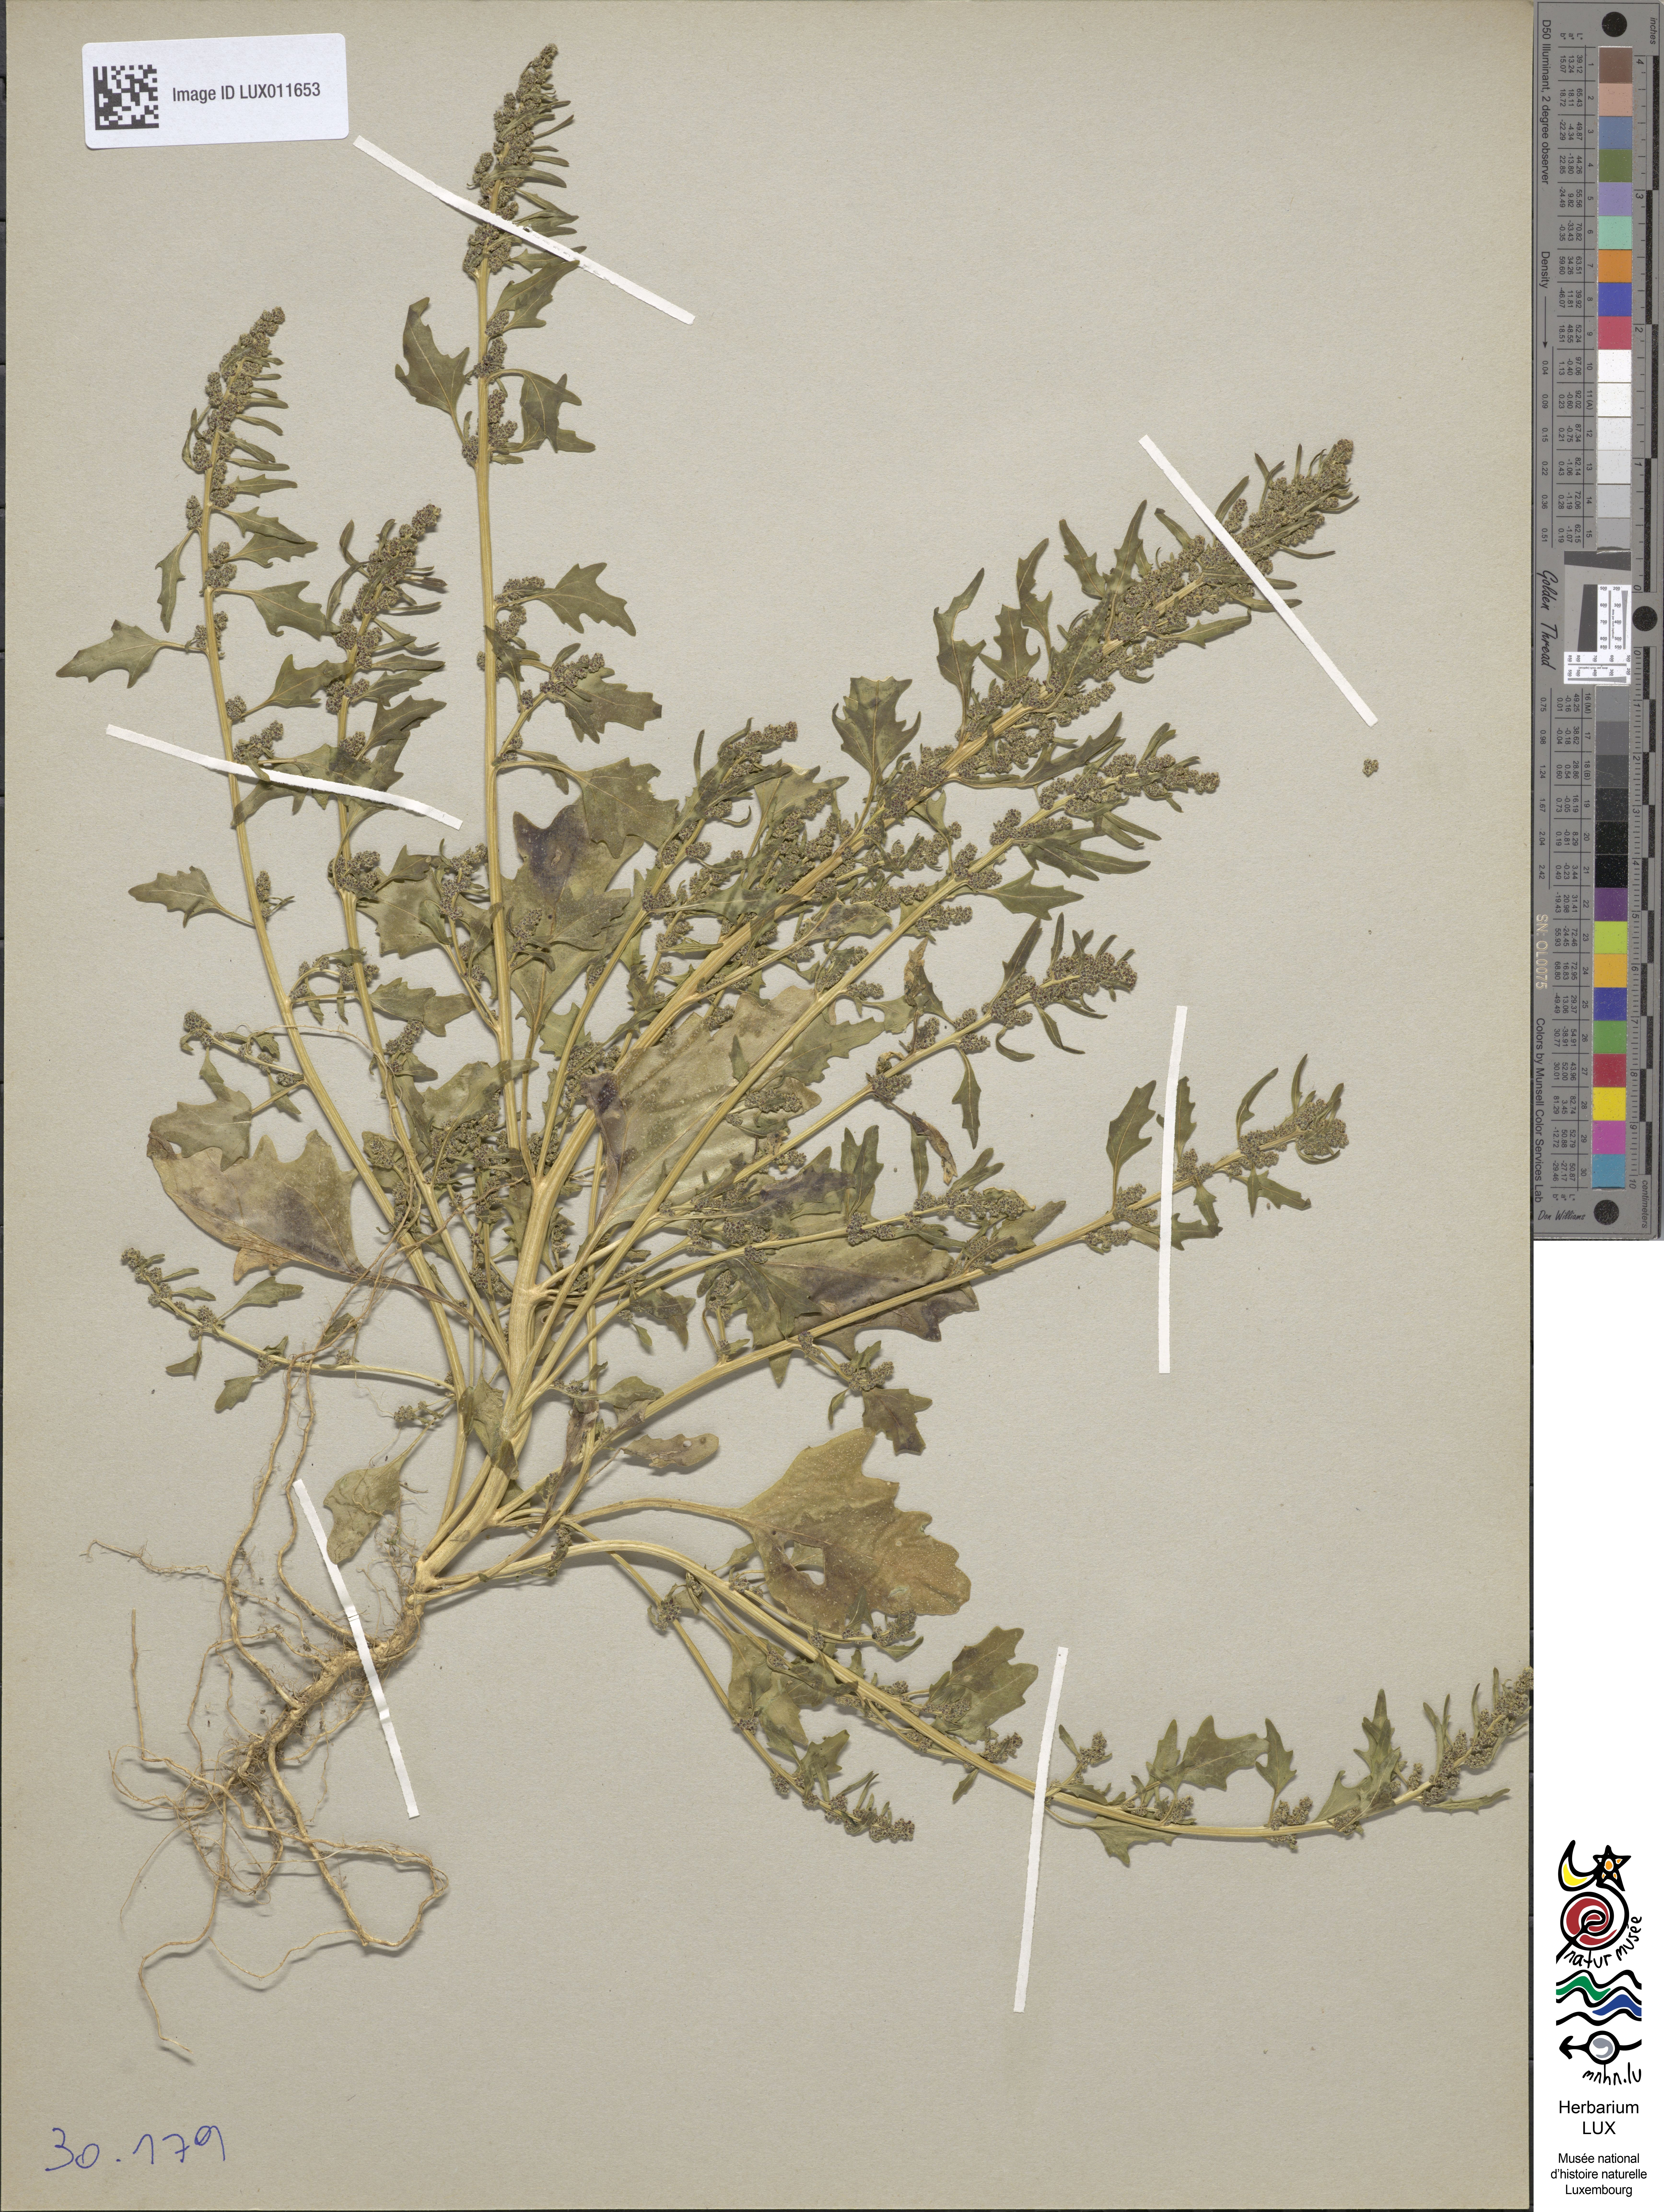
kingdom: Plantae
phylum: Tracheophyta
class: Magnoliopsida
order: Caryophyllales
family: Amaranthaceae
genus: Lipandra
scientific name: Lipandra polysperma
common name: Many-seed goosefoot
